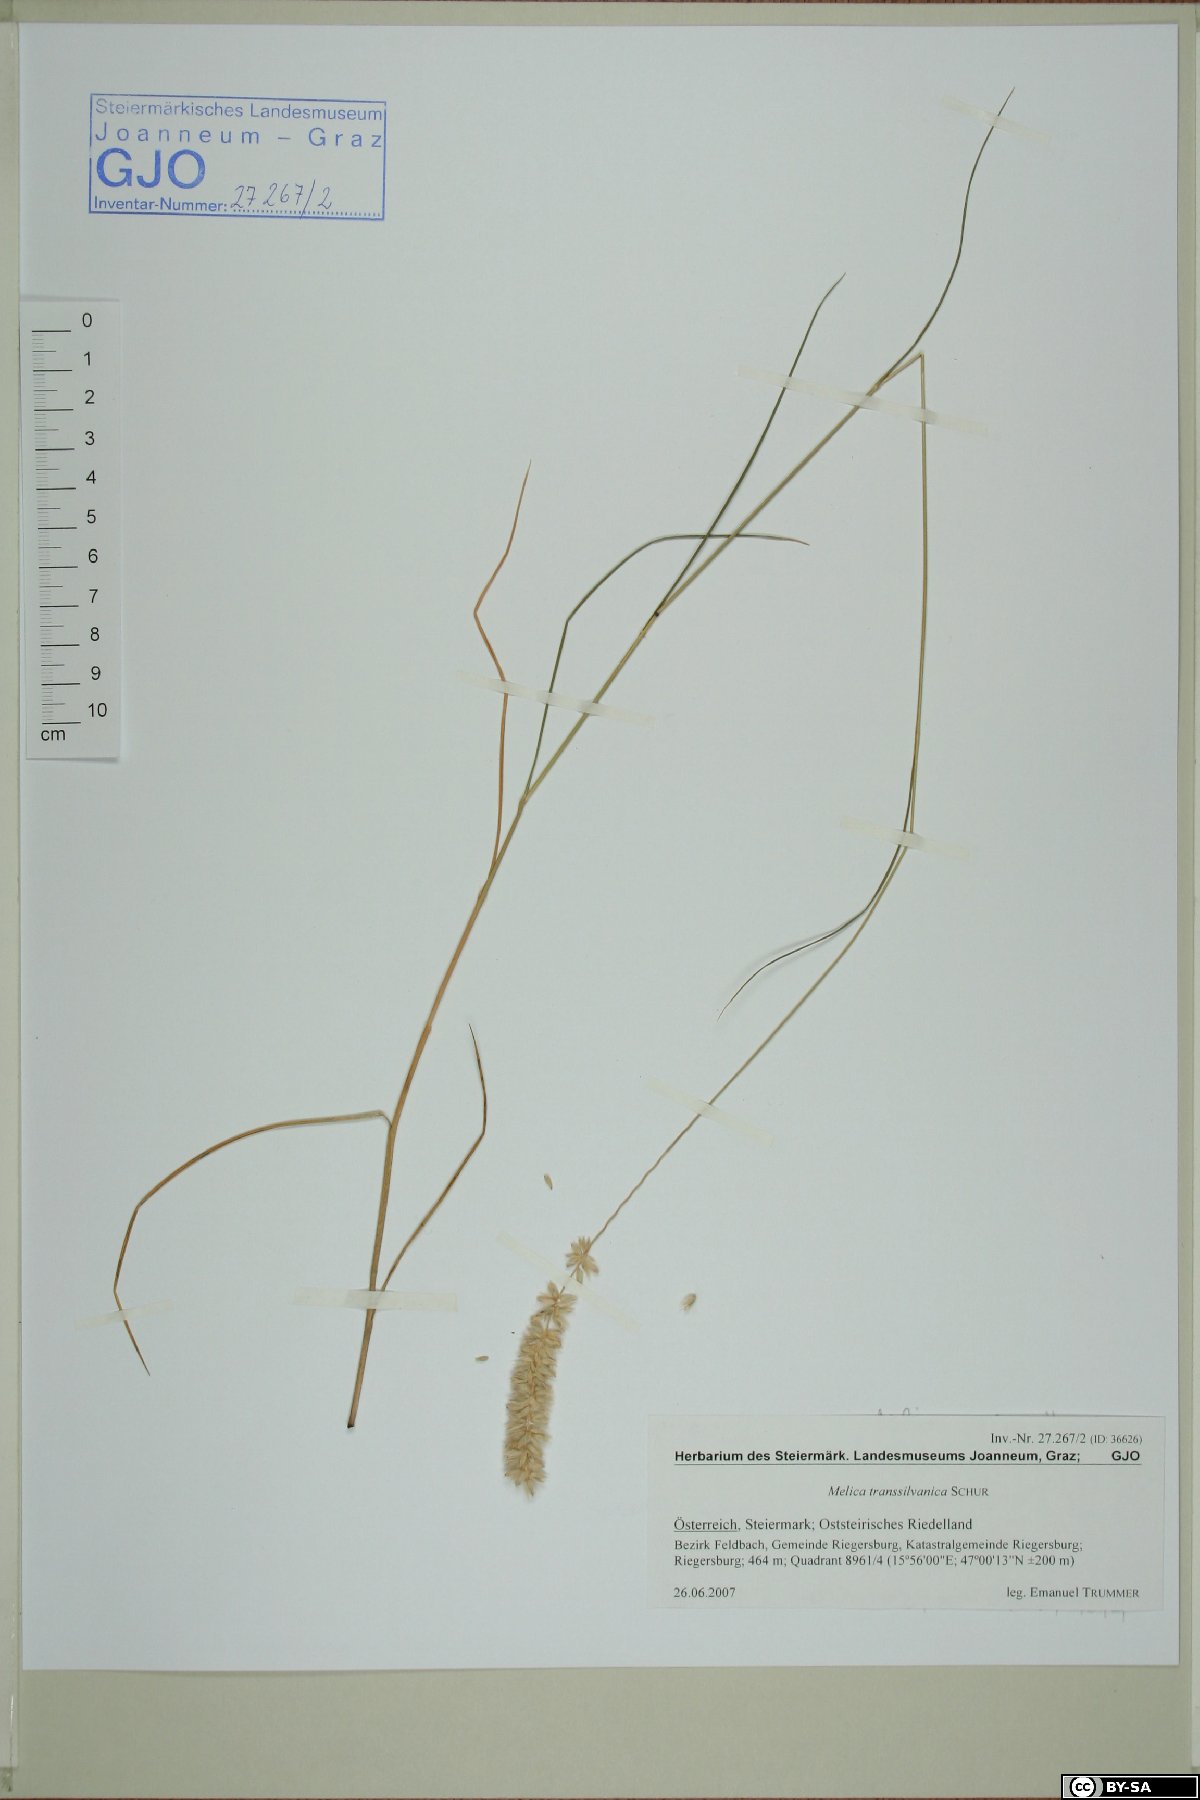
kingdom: Plantae
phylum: Tracheophyta
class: Liliopsida
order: Poales
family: Poaceae
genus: Melica
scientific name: Melica transsilvanica
